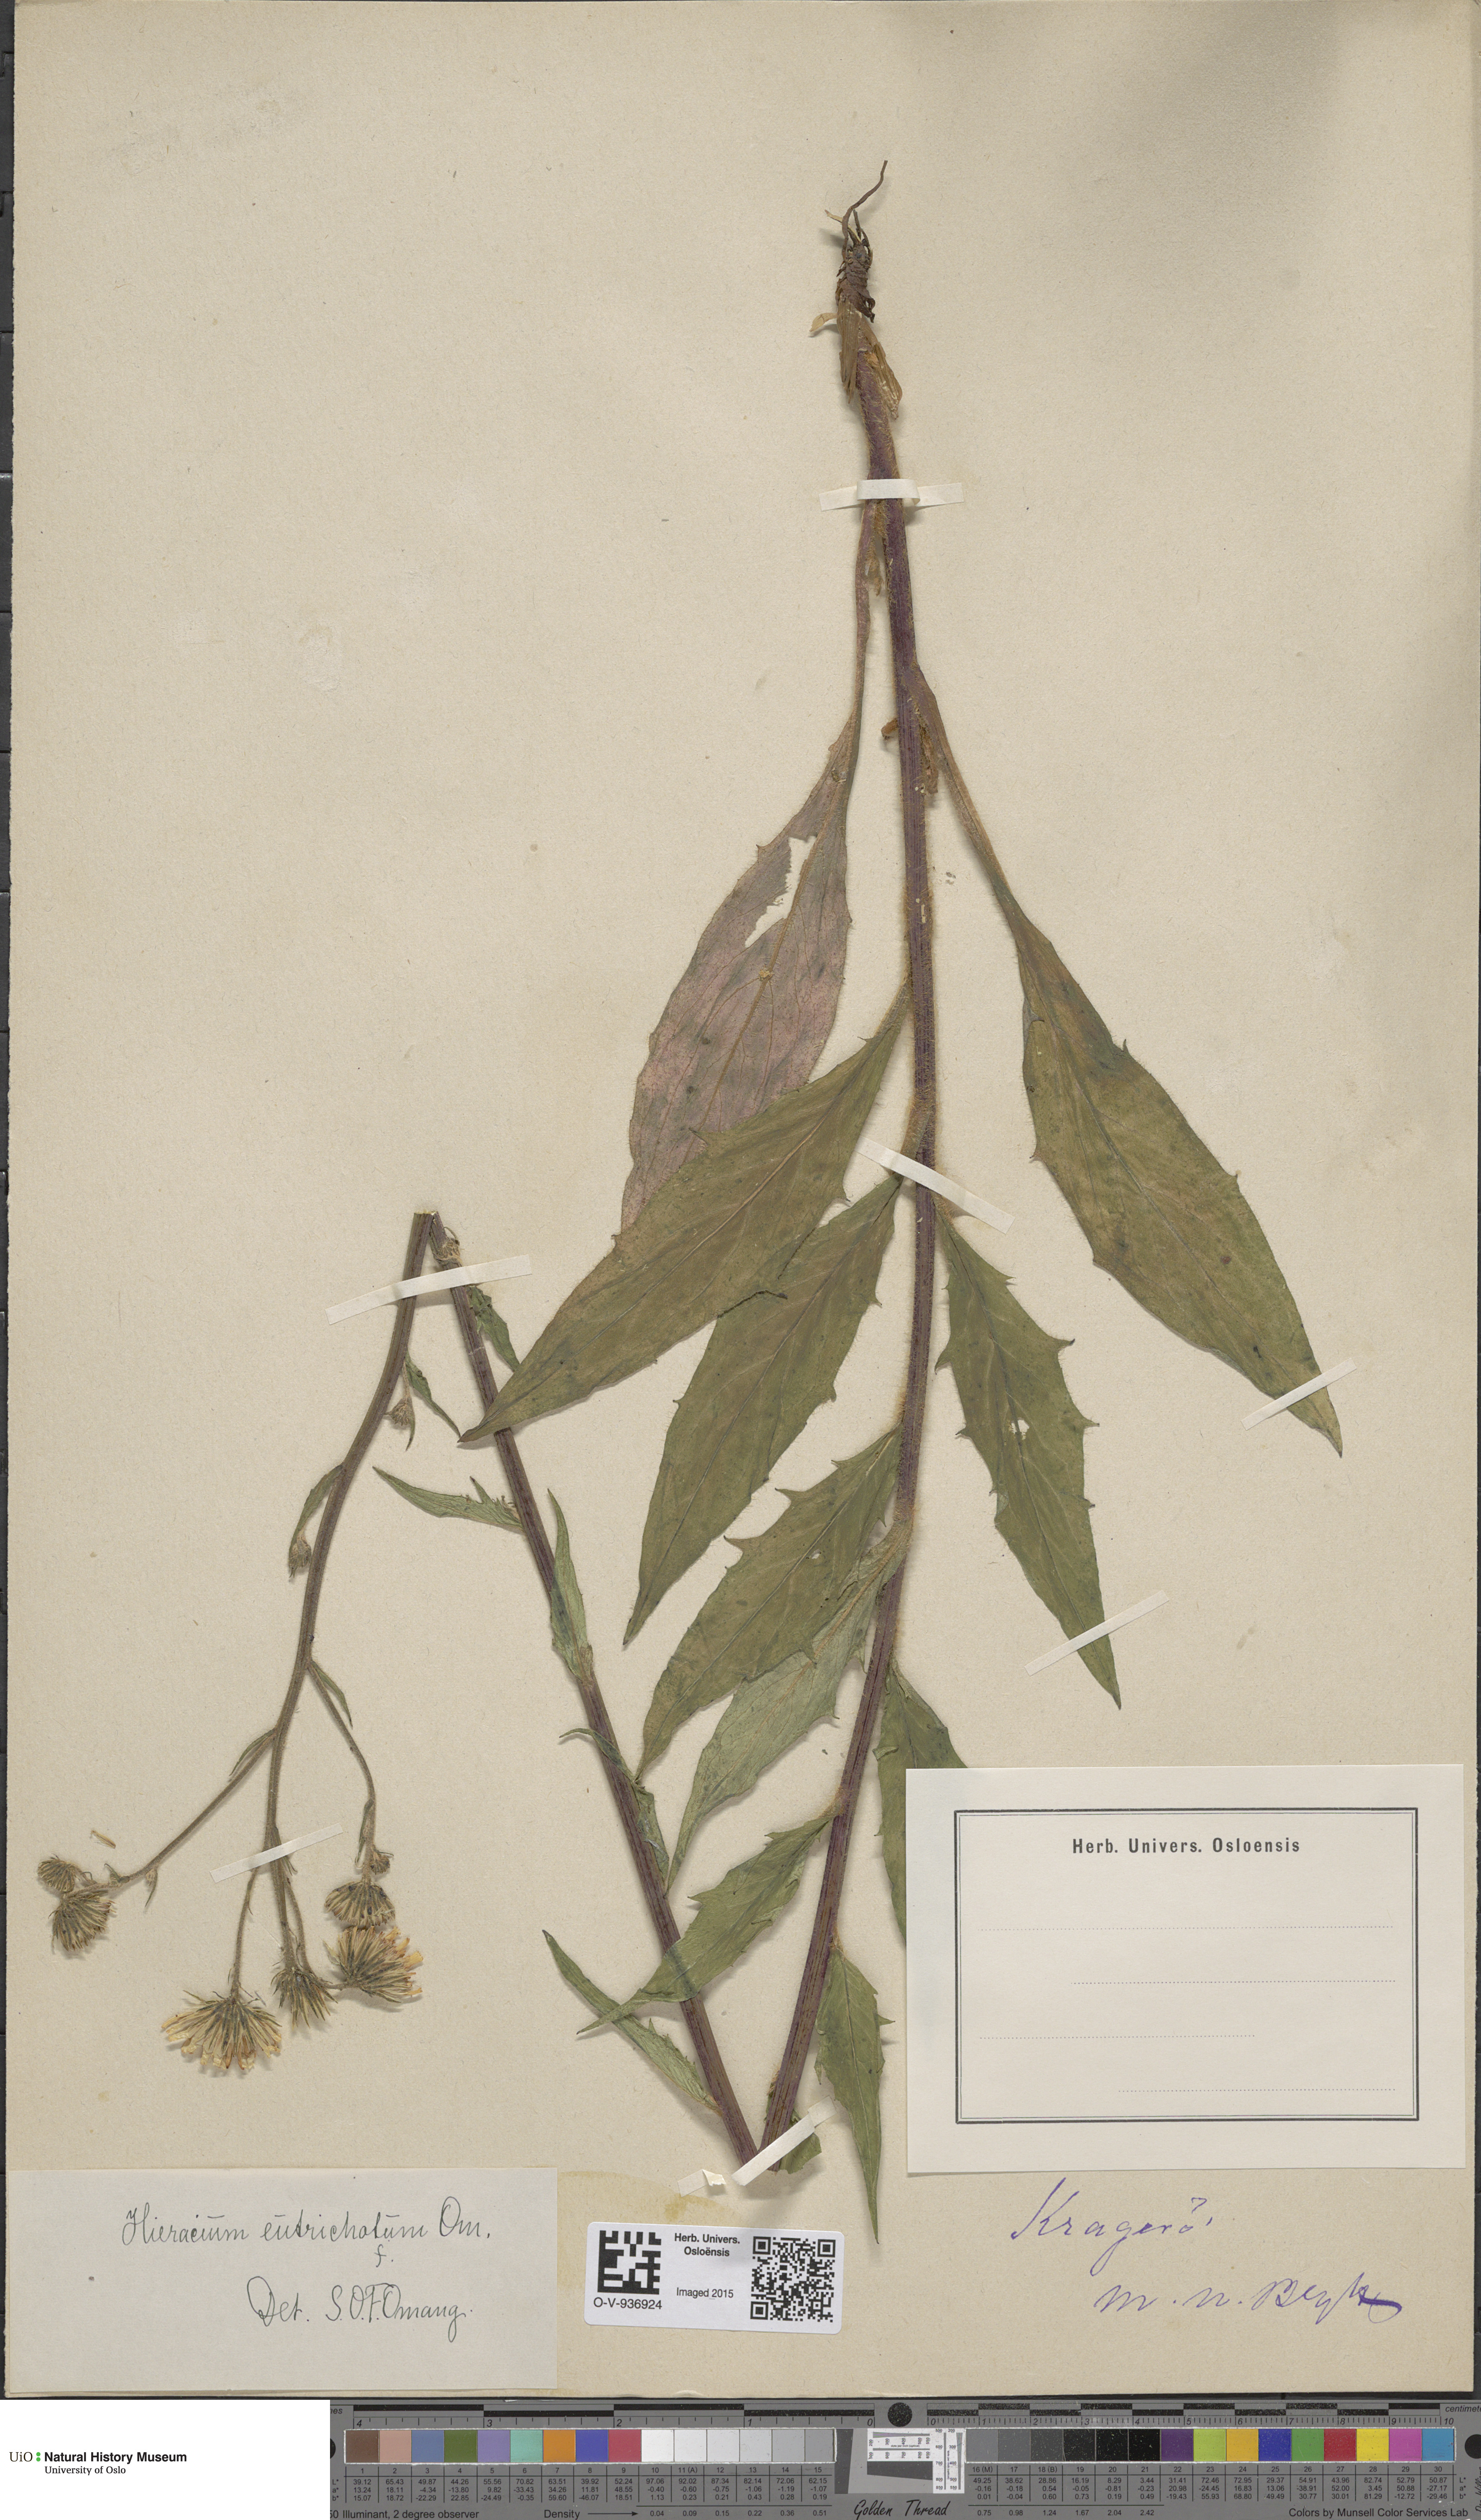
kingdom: Plantae
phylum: Tracheophyta
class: Magnoliopsida
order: Asterales
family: Asteraceae
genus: Hieracium
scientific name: Hieracium
